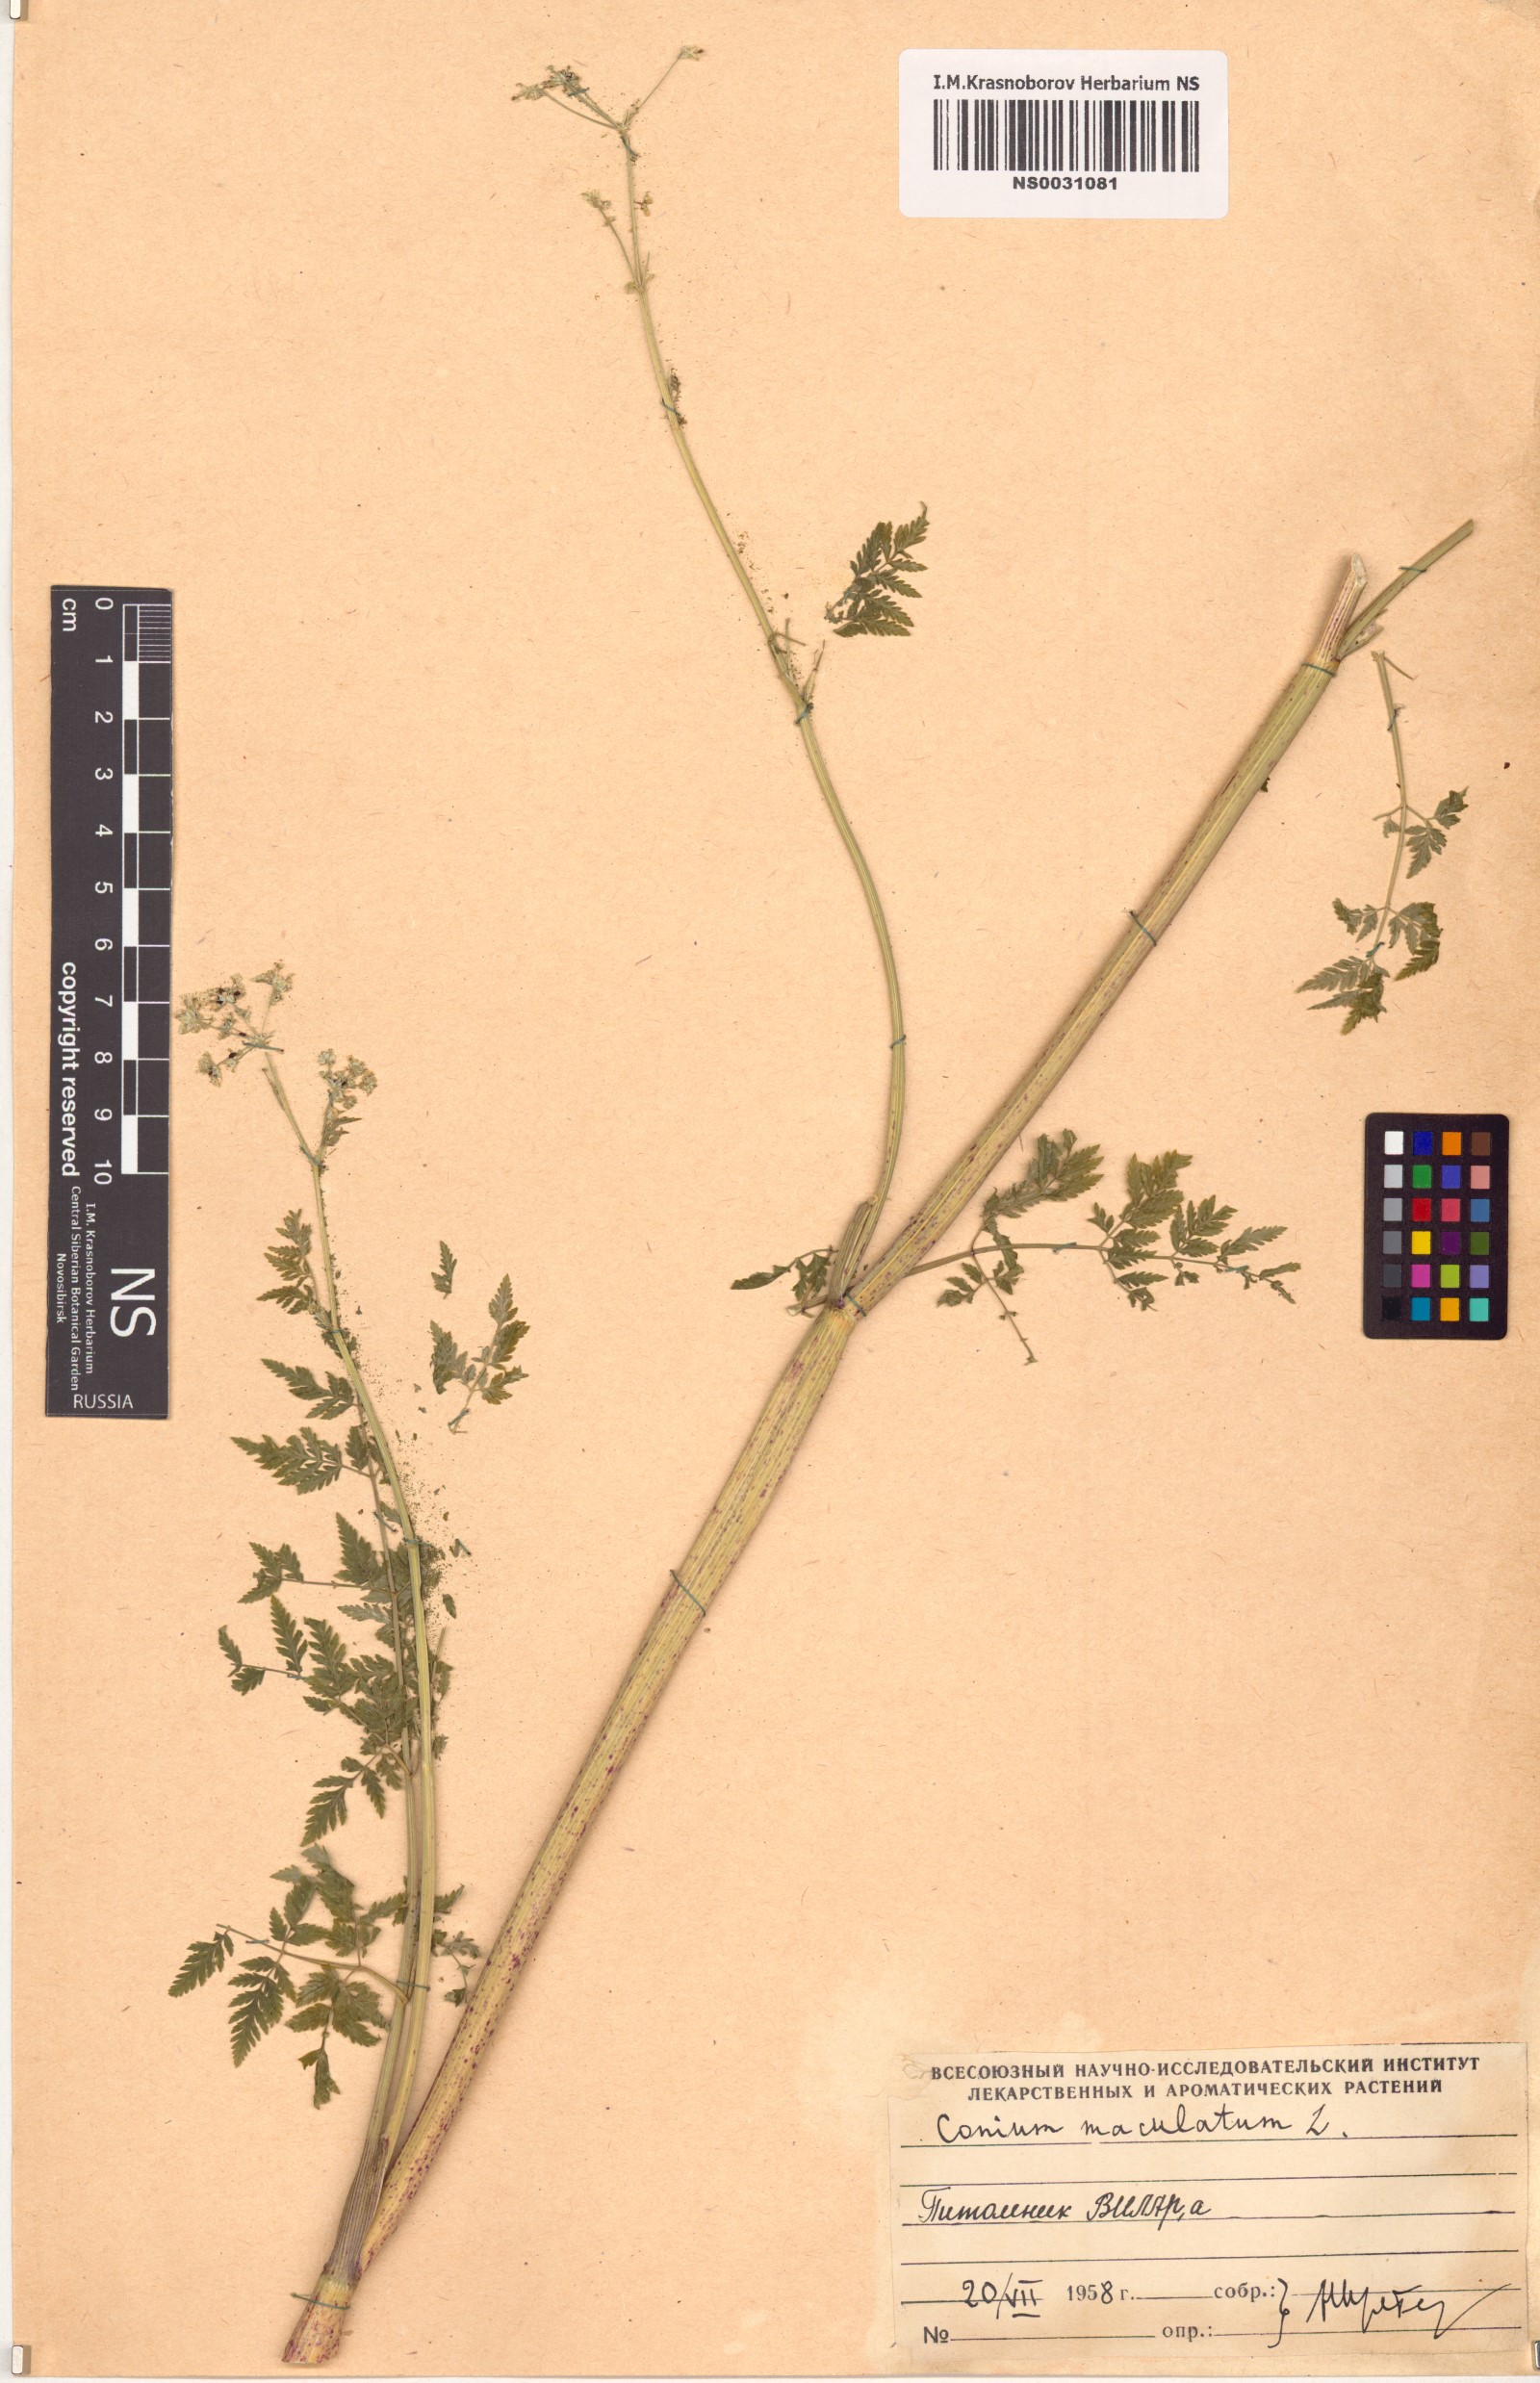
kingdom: Plantae
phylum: Tracheophyta
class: Magnoliopsida
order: Apiales
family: Apiaceae
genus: Conium
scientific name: Conium maculatum
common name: Hemlock
